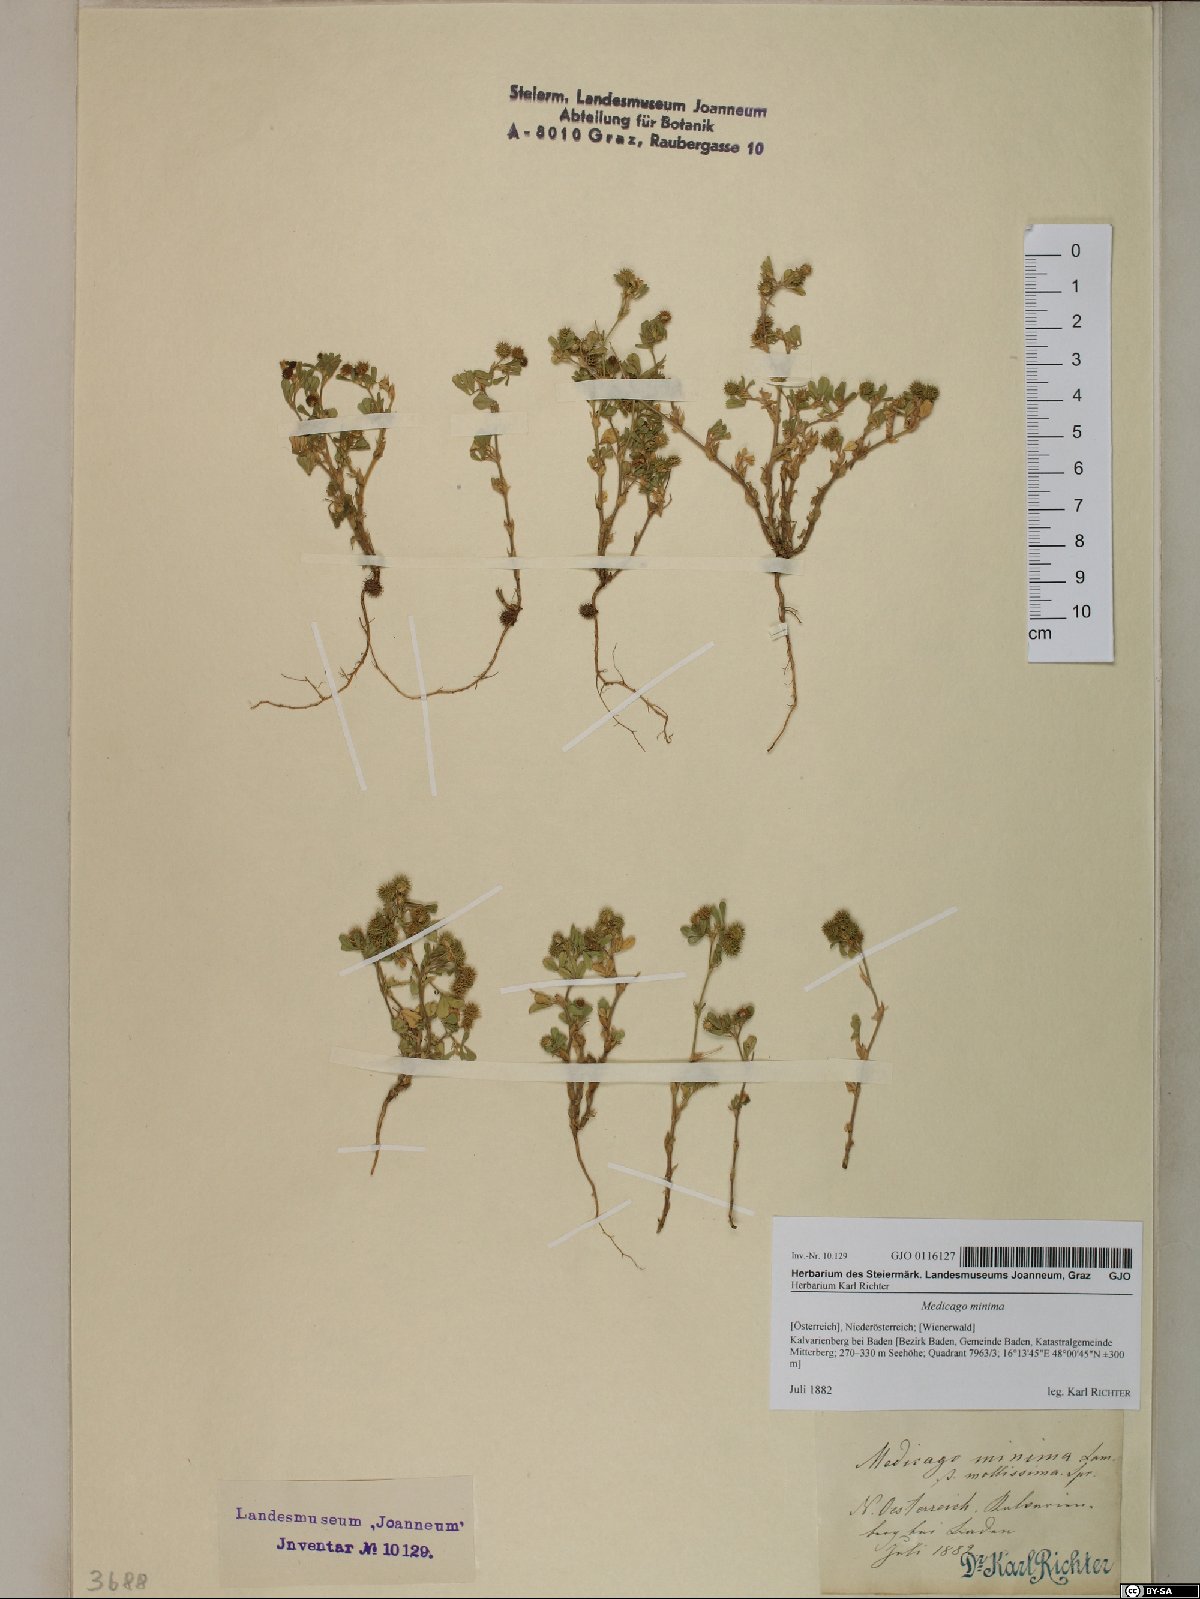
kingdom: Plantae
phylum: Tracheophyta
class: Magnoliopsida
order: Fabales
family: Fabaceae
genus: Medicago
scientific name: Medicago minima
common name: Little bur-clover
